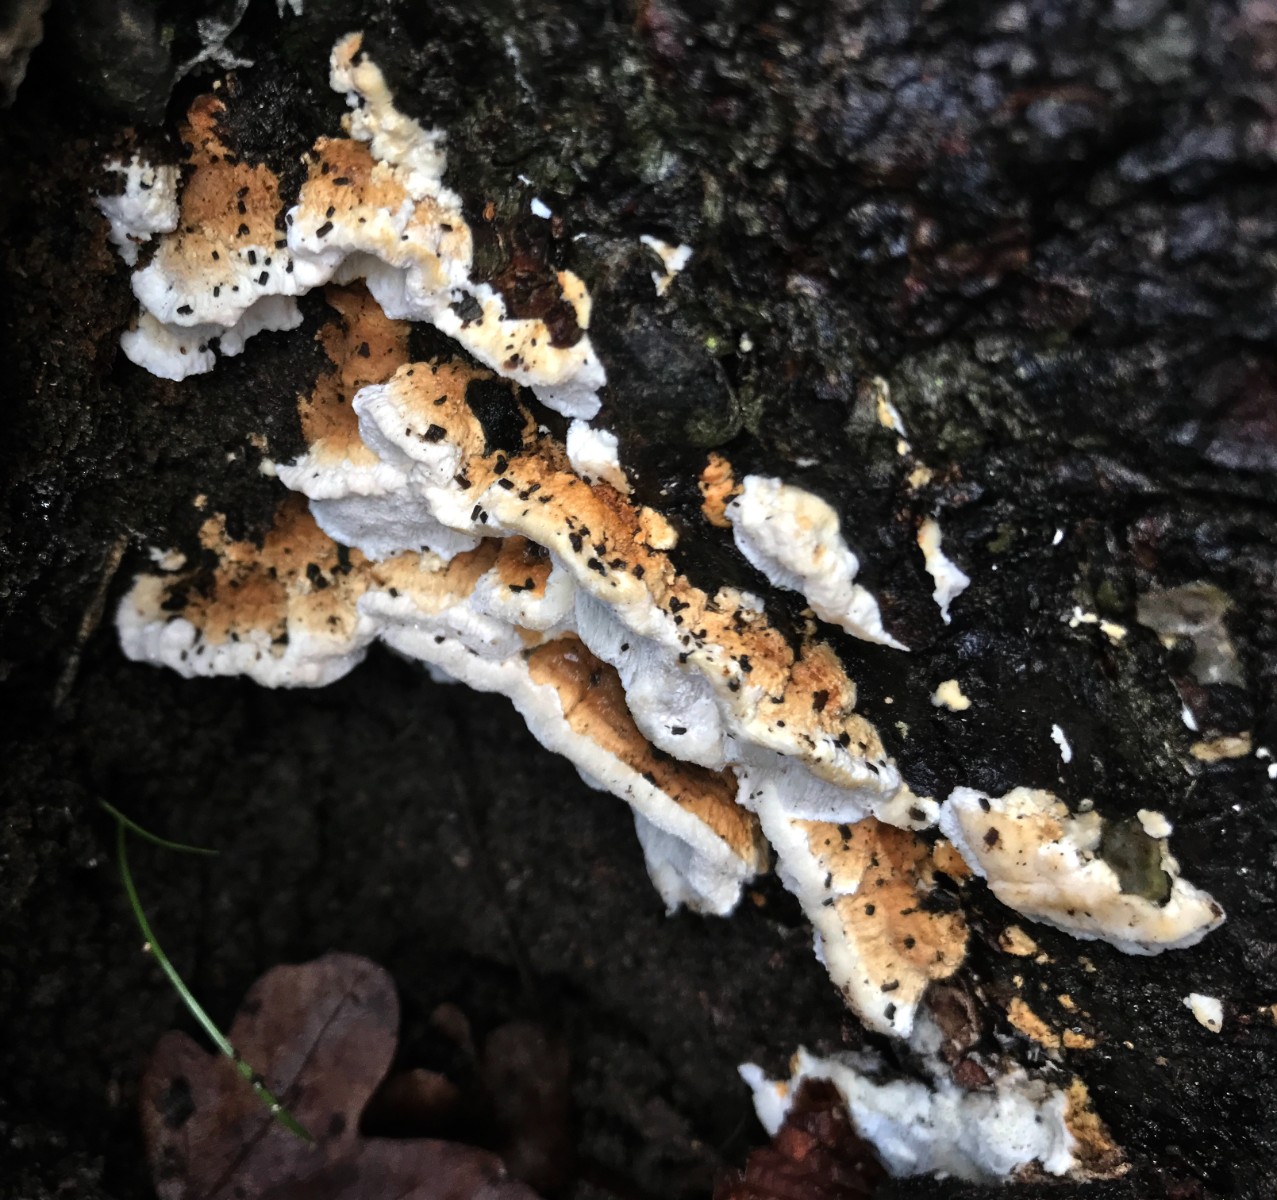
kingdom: Fungi
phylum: Basidiomycota
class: Agaricomycetes
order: Polyporales
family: Fomitopsidaceae
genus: Neoantrodia
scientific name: Neoantrodia serialis
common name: række-sejporesvamp
